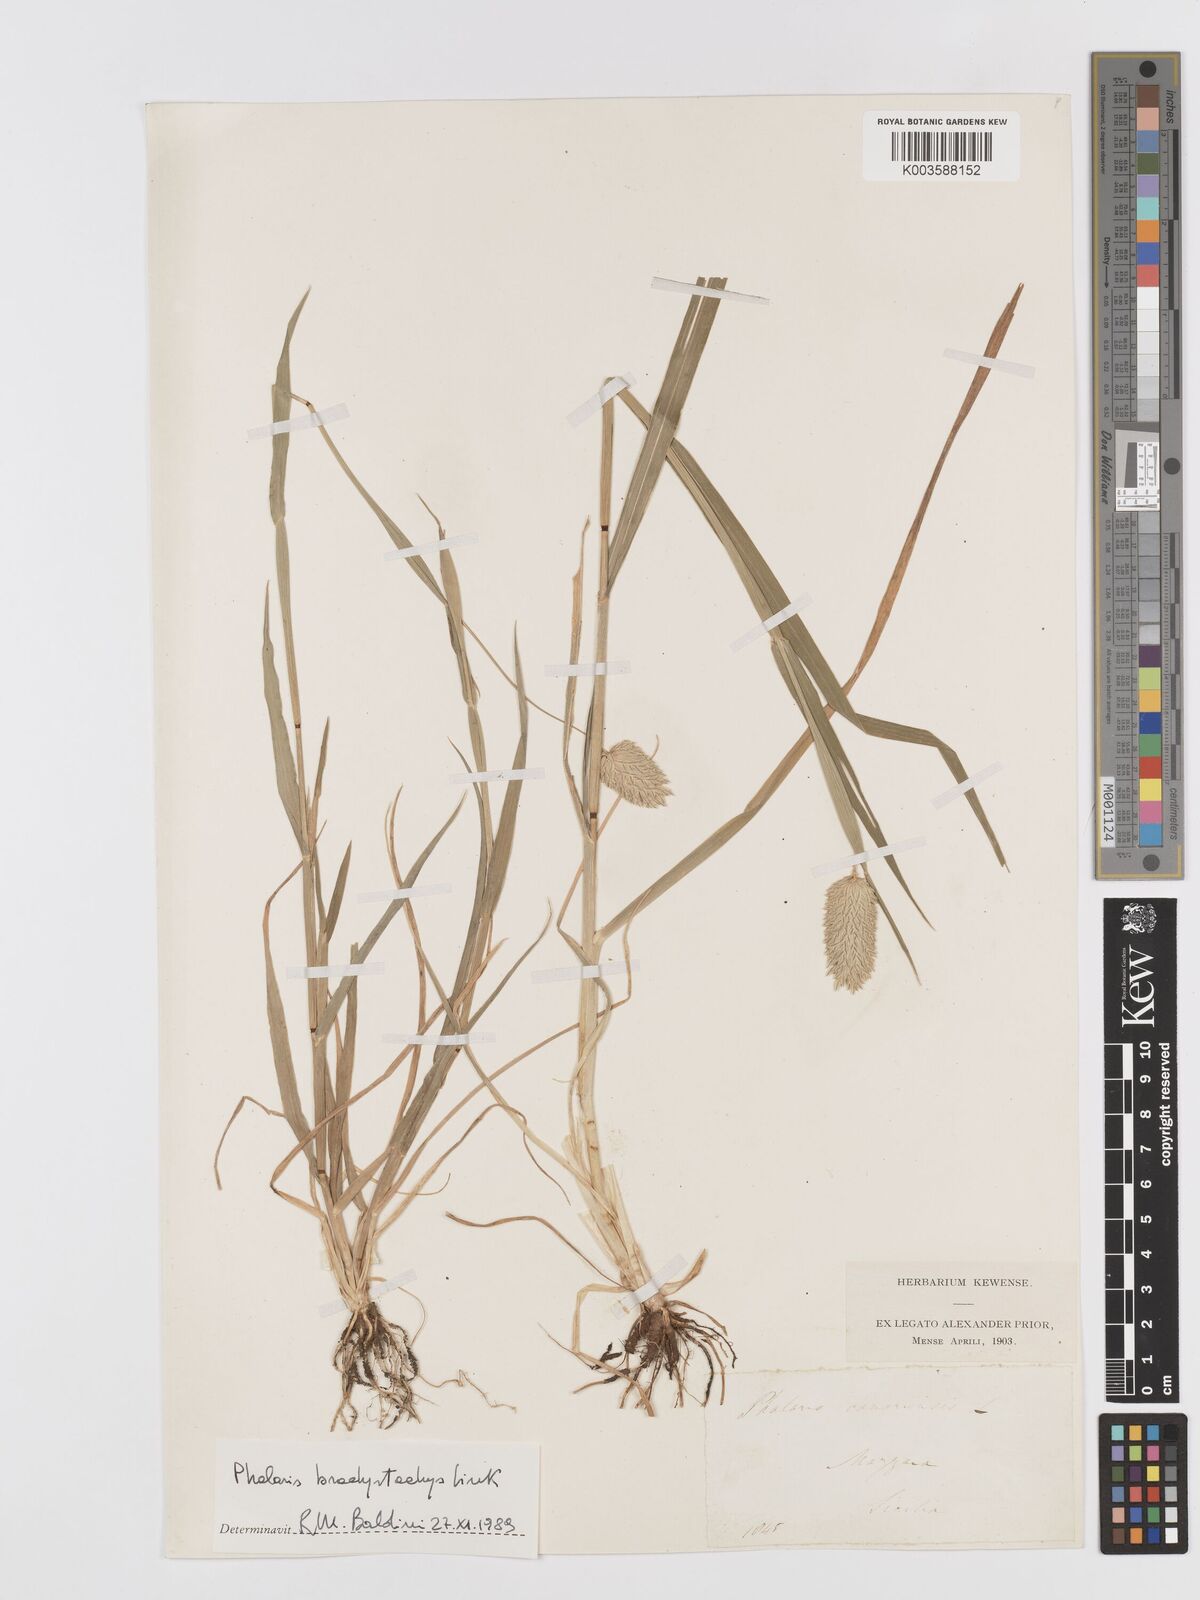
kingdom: Plantae
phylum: Tracheophyta
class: Liliopsida
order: Poales
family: Poaceae
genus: Phalaris
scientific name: Phalaris canariensis
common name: Annual canarygrass
